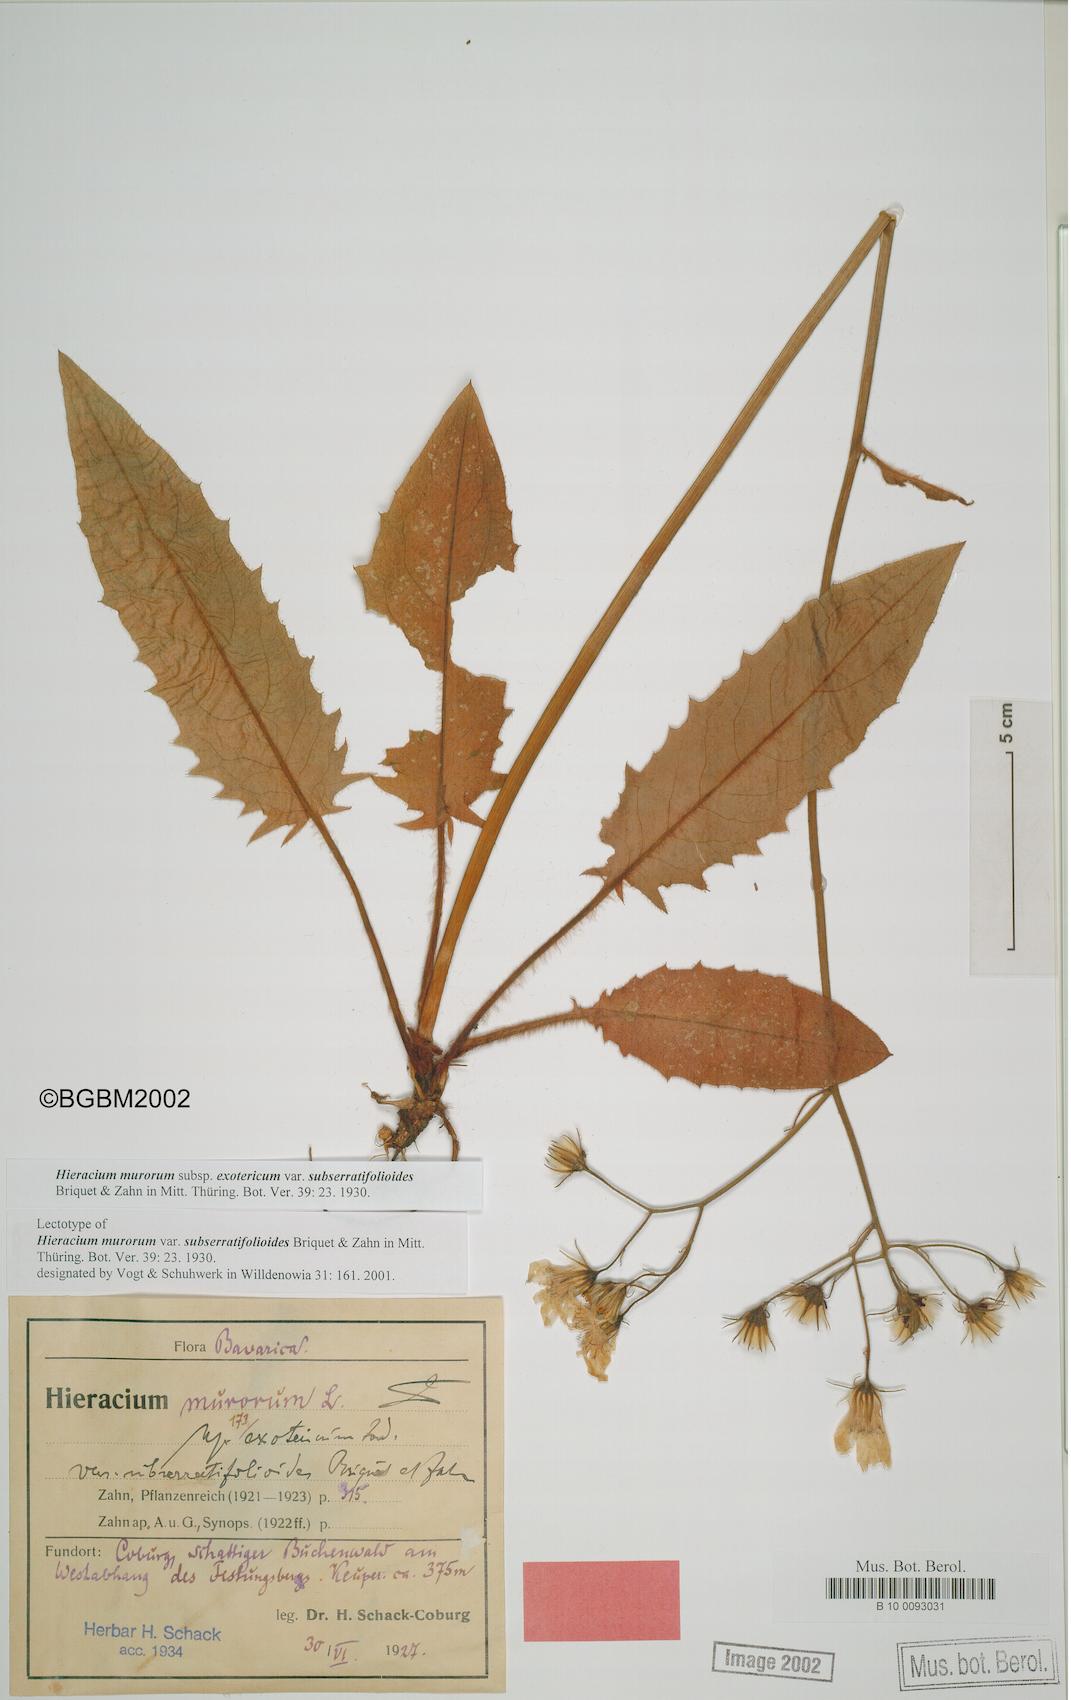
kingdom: Plantae
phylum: Tracheophyta
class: Magnoliopsida
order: Asterales
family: Asteraceae
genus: Hieracium
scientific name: Hieracium murorum
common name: Wall hawkweed
